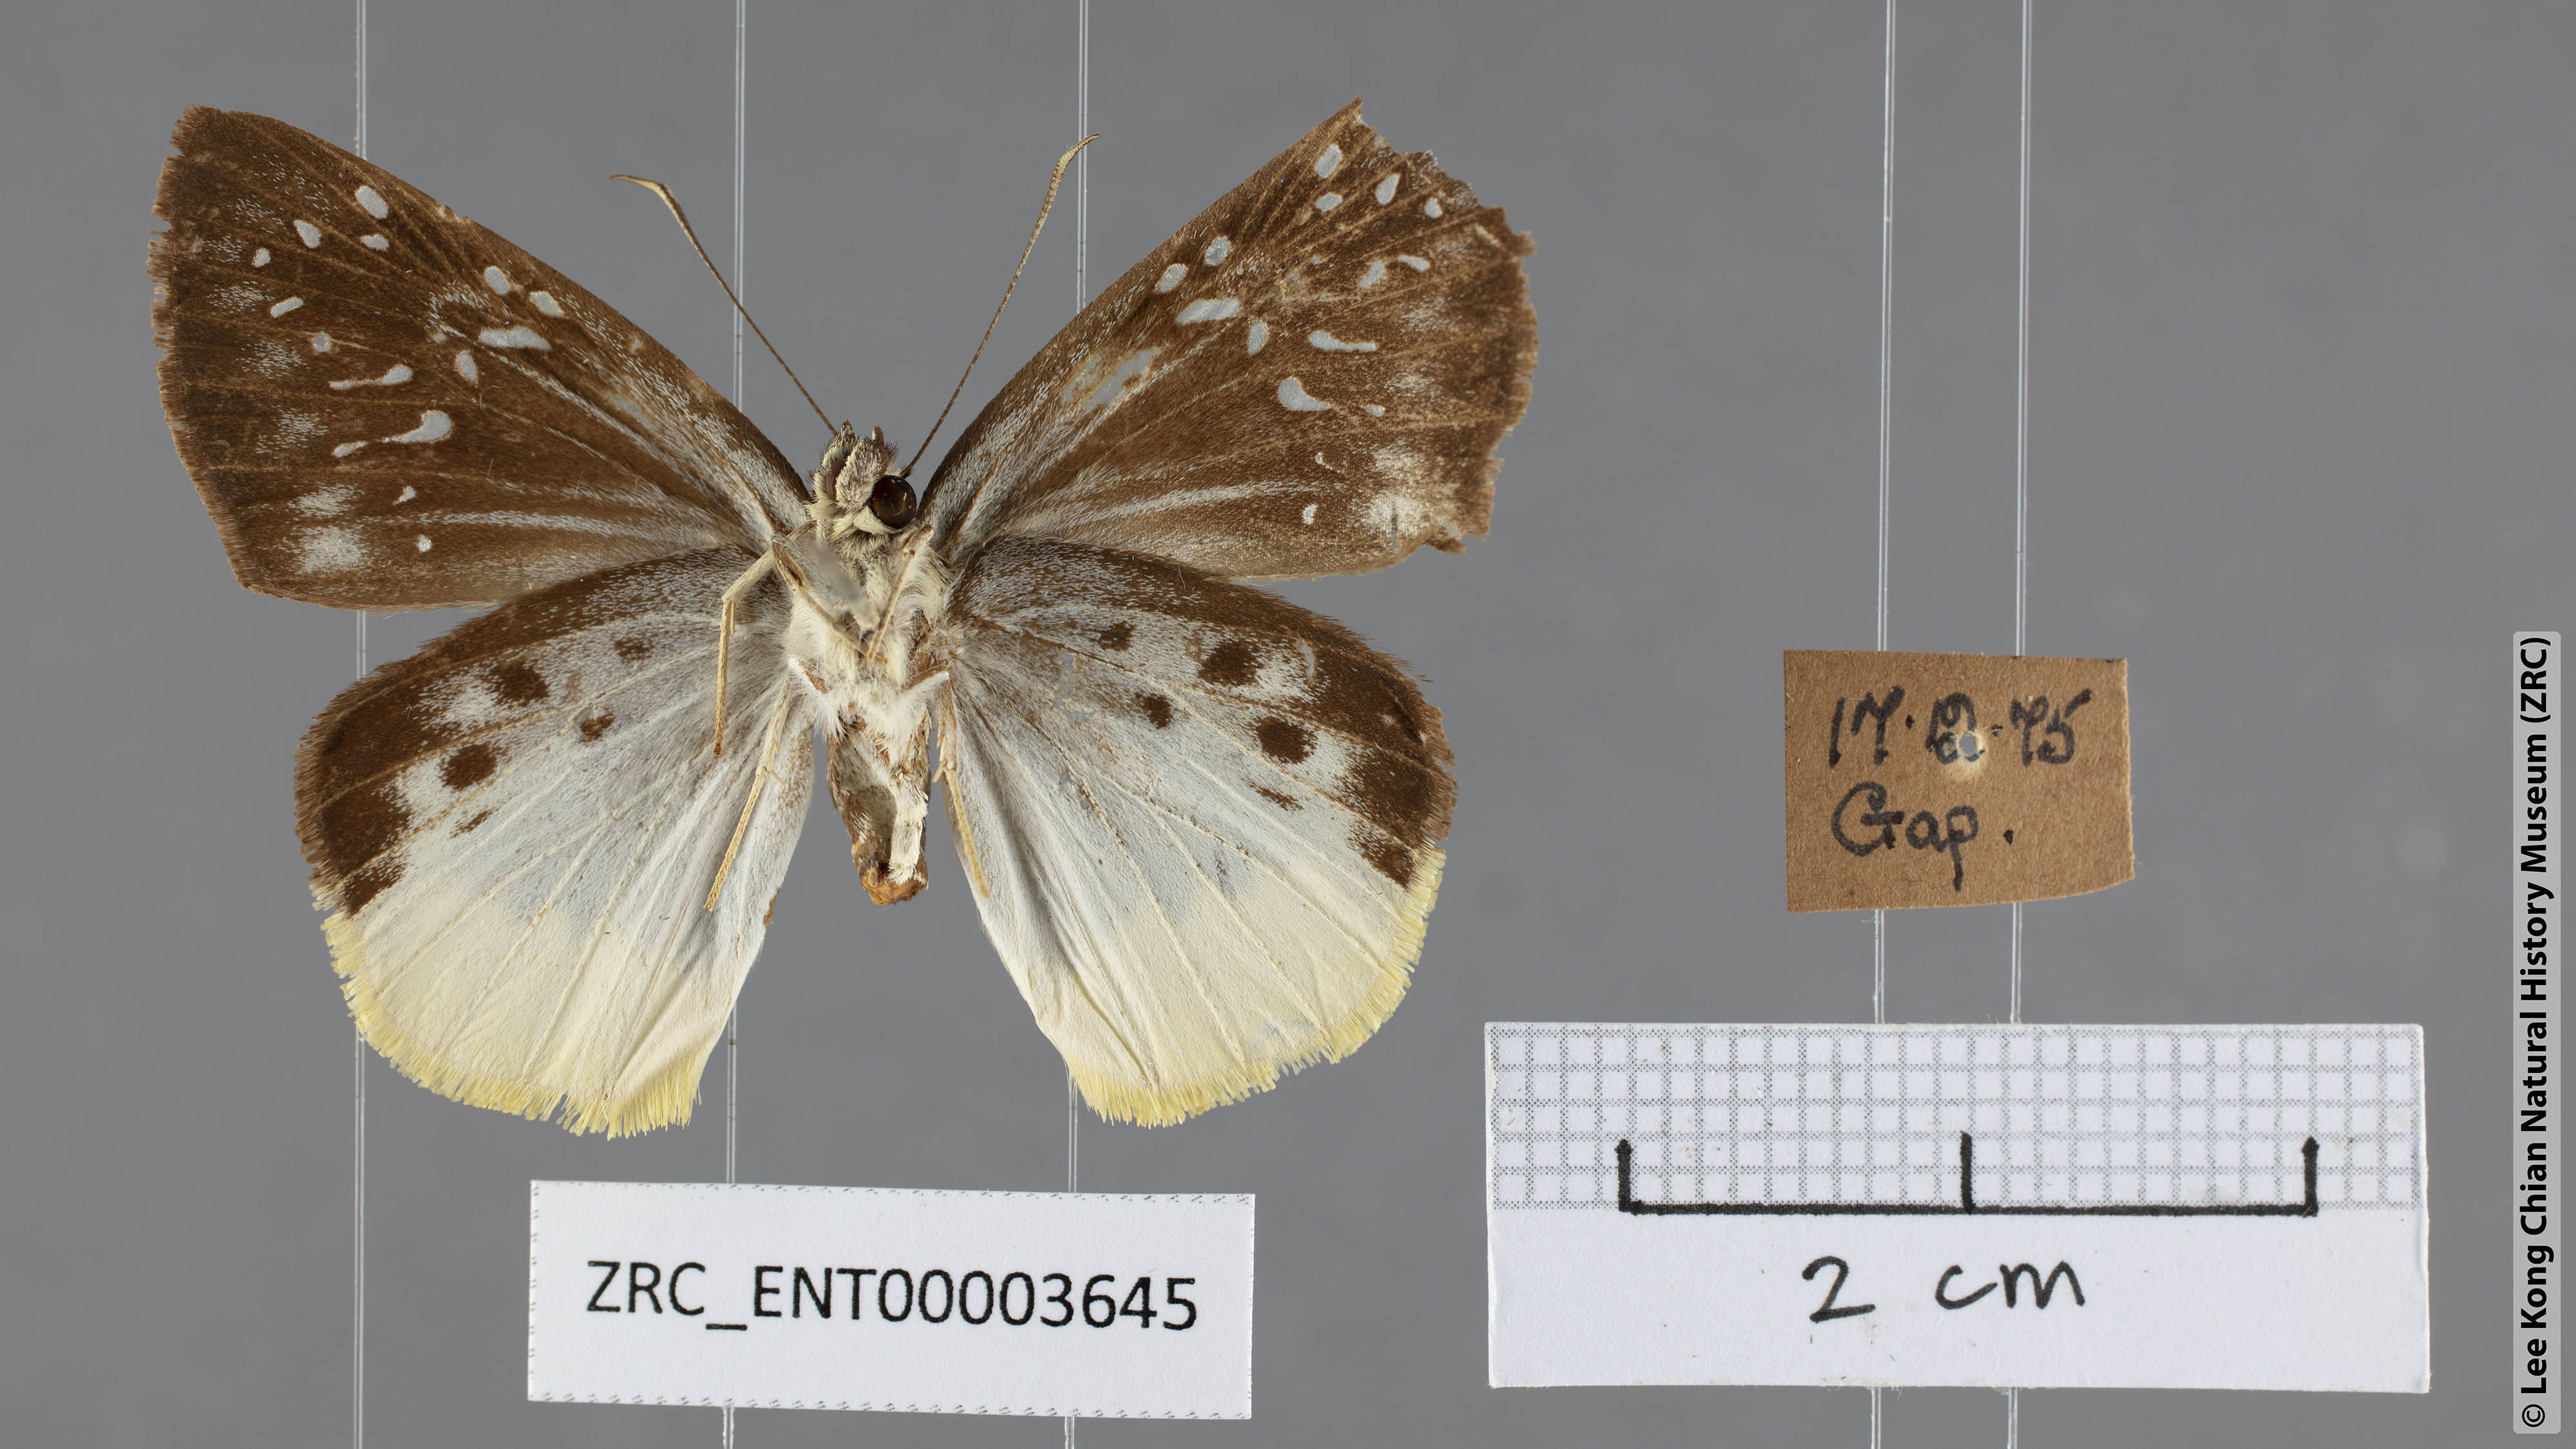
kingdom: Animalia
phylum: Arthropoda
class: Insecta
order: Lepidoptera
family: Hesperiidae
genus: Mooreana
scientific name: Mooreana trichoneura
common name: Yellow flat
